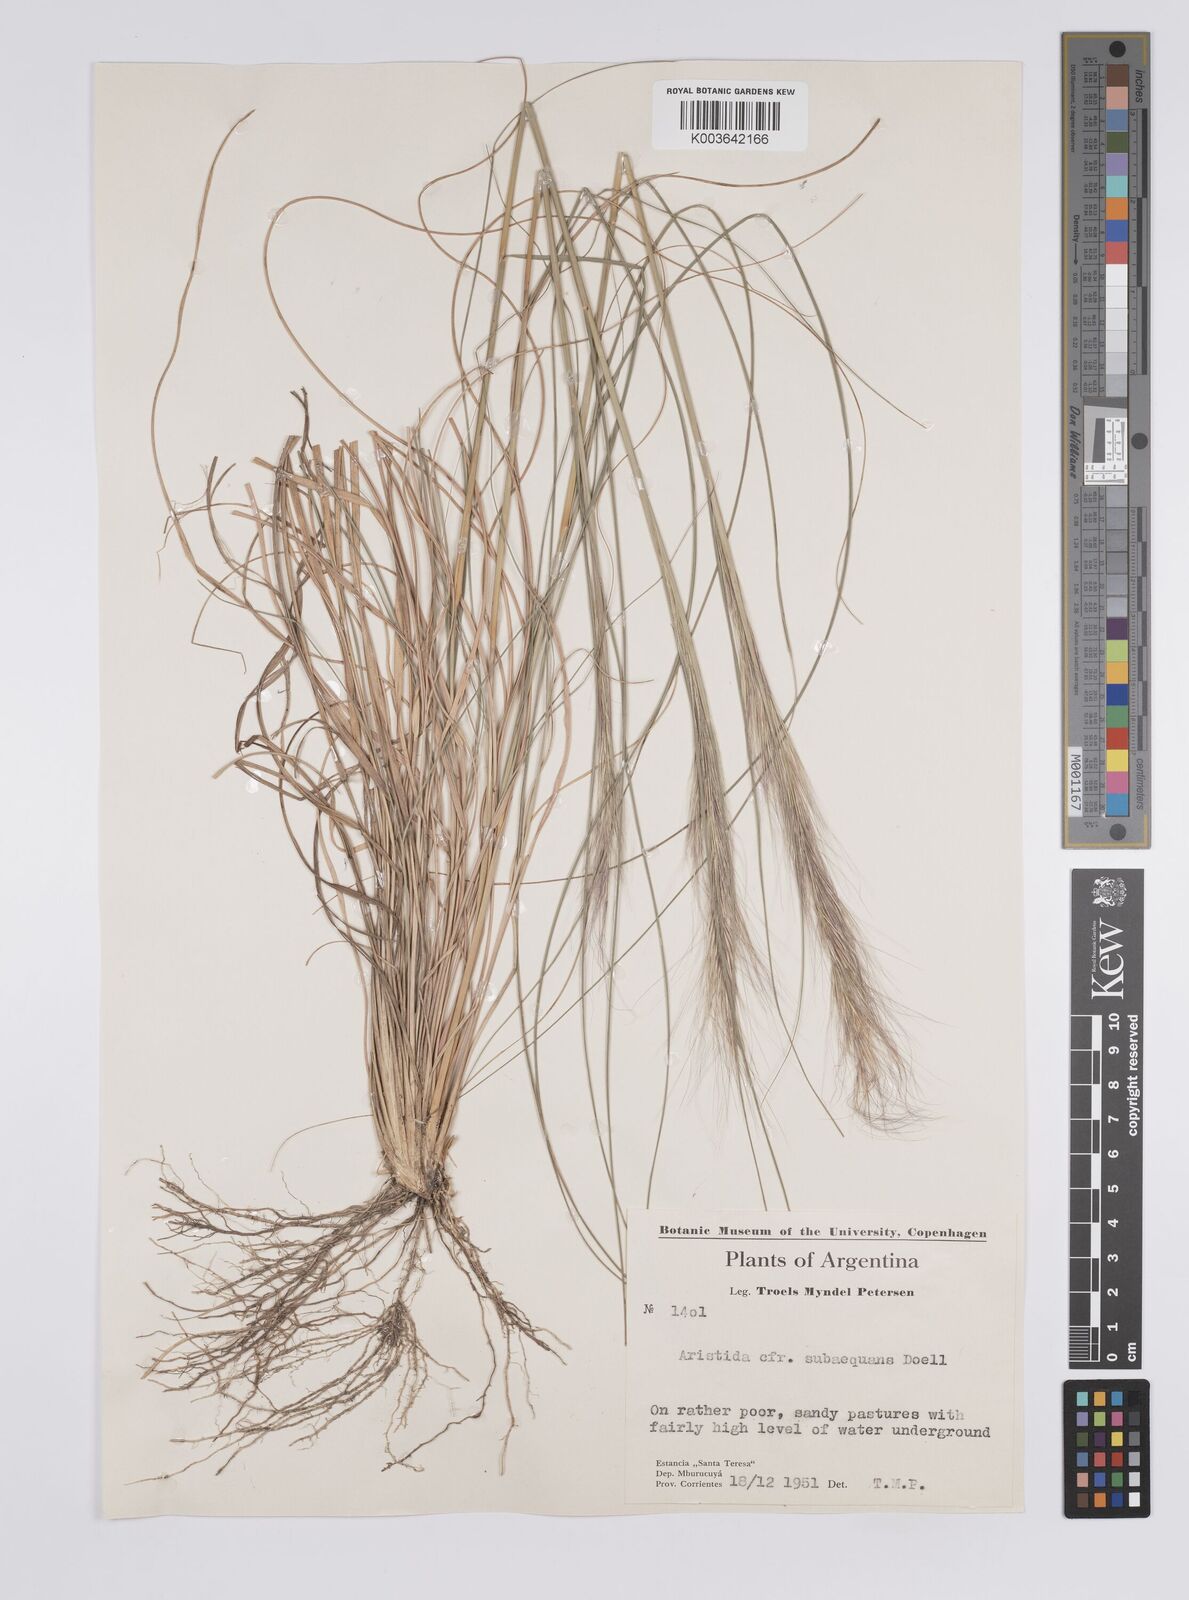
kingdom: Plantae
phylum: Tracheophyta
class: Liliopsida
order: Poales
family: Poaceae
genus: Aristida
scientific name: Aristida
